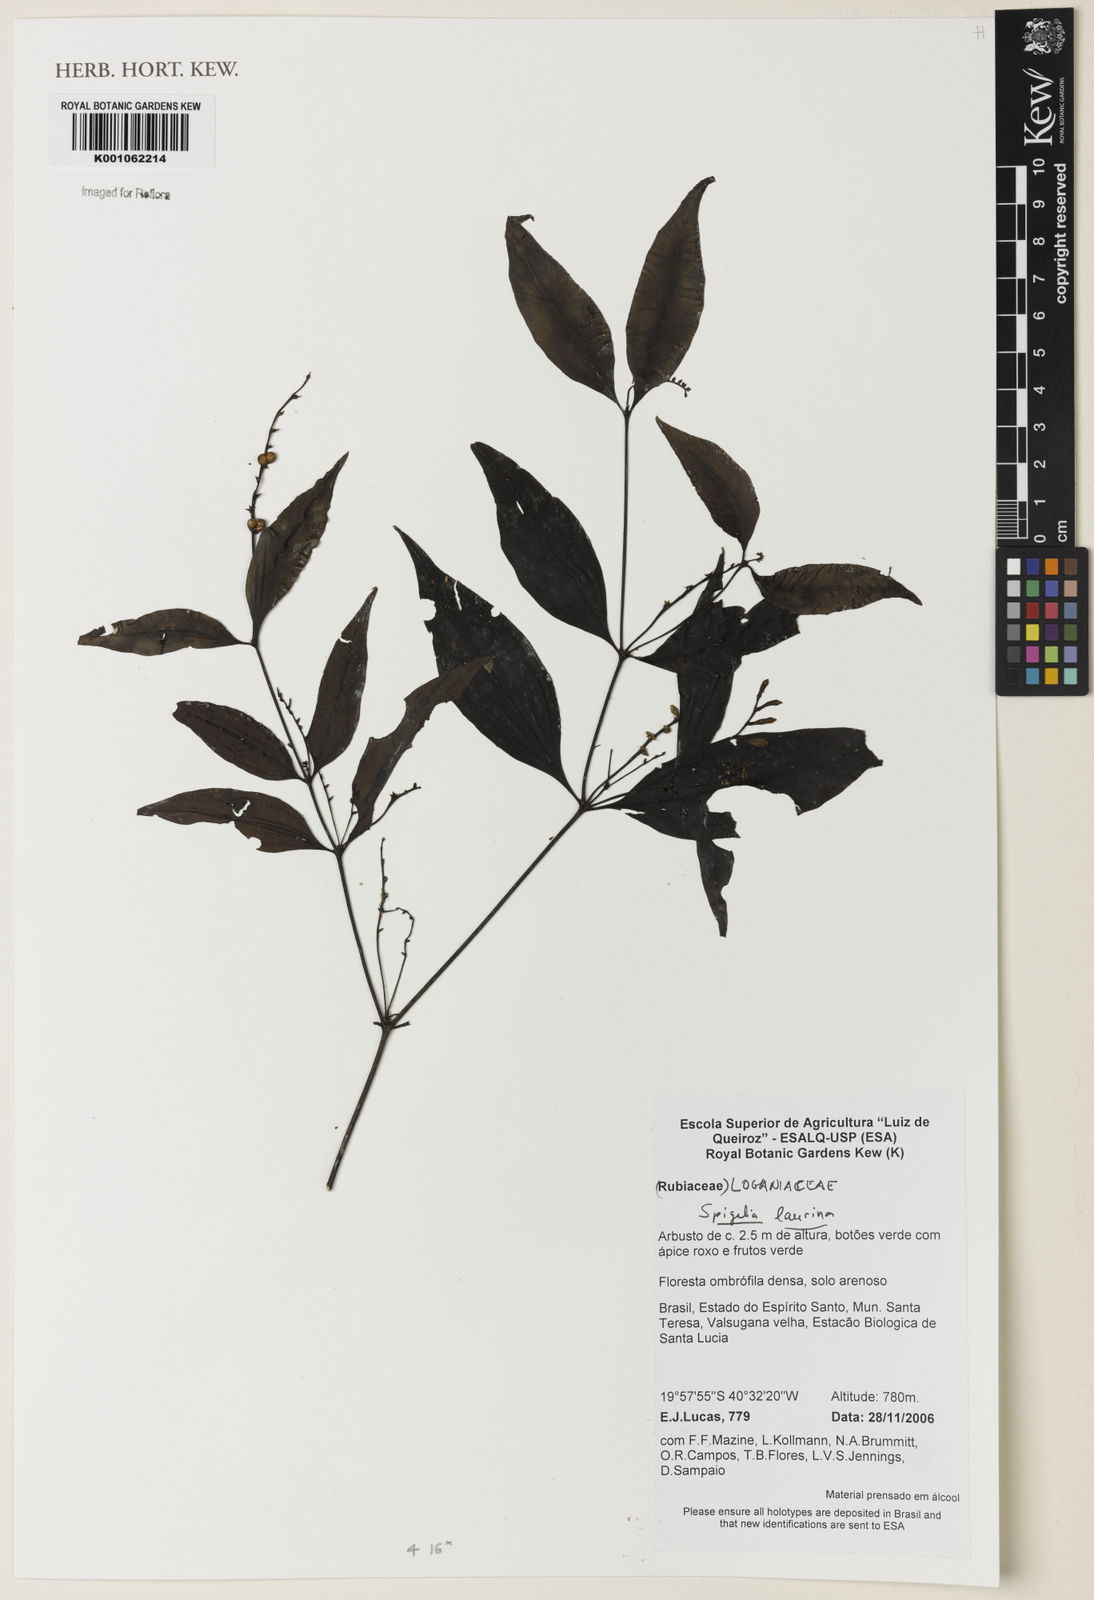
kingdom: Plantae
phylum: Tracheophyta
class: Magnoliopsida
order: Gentianales
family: Loganiaceae
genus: Spigelia
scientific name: Spigelia laurina
